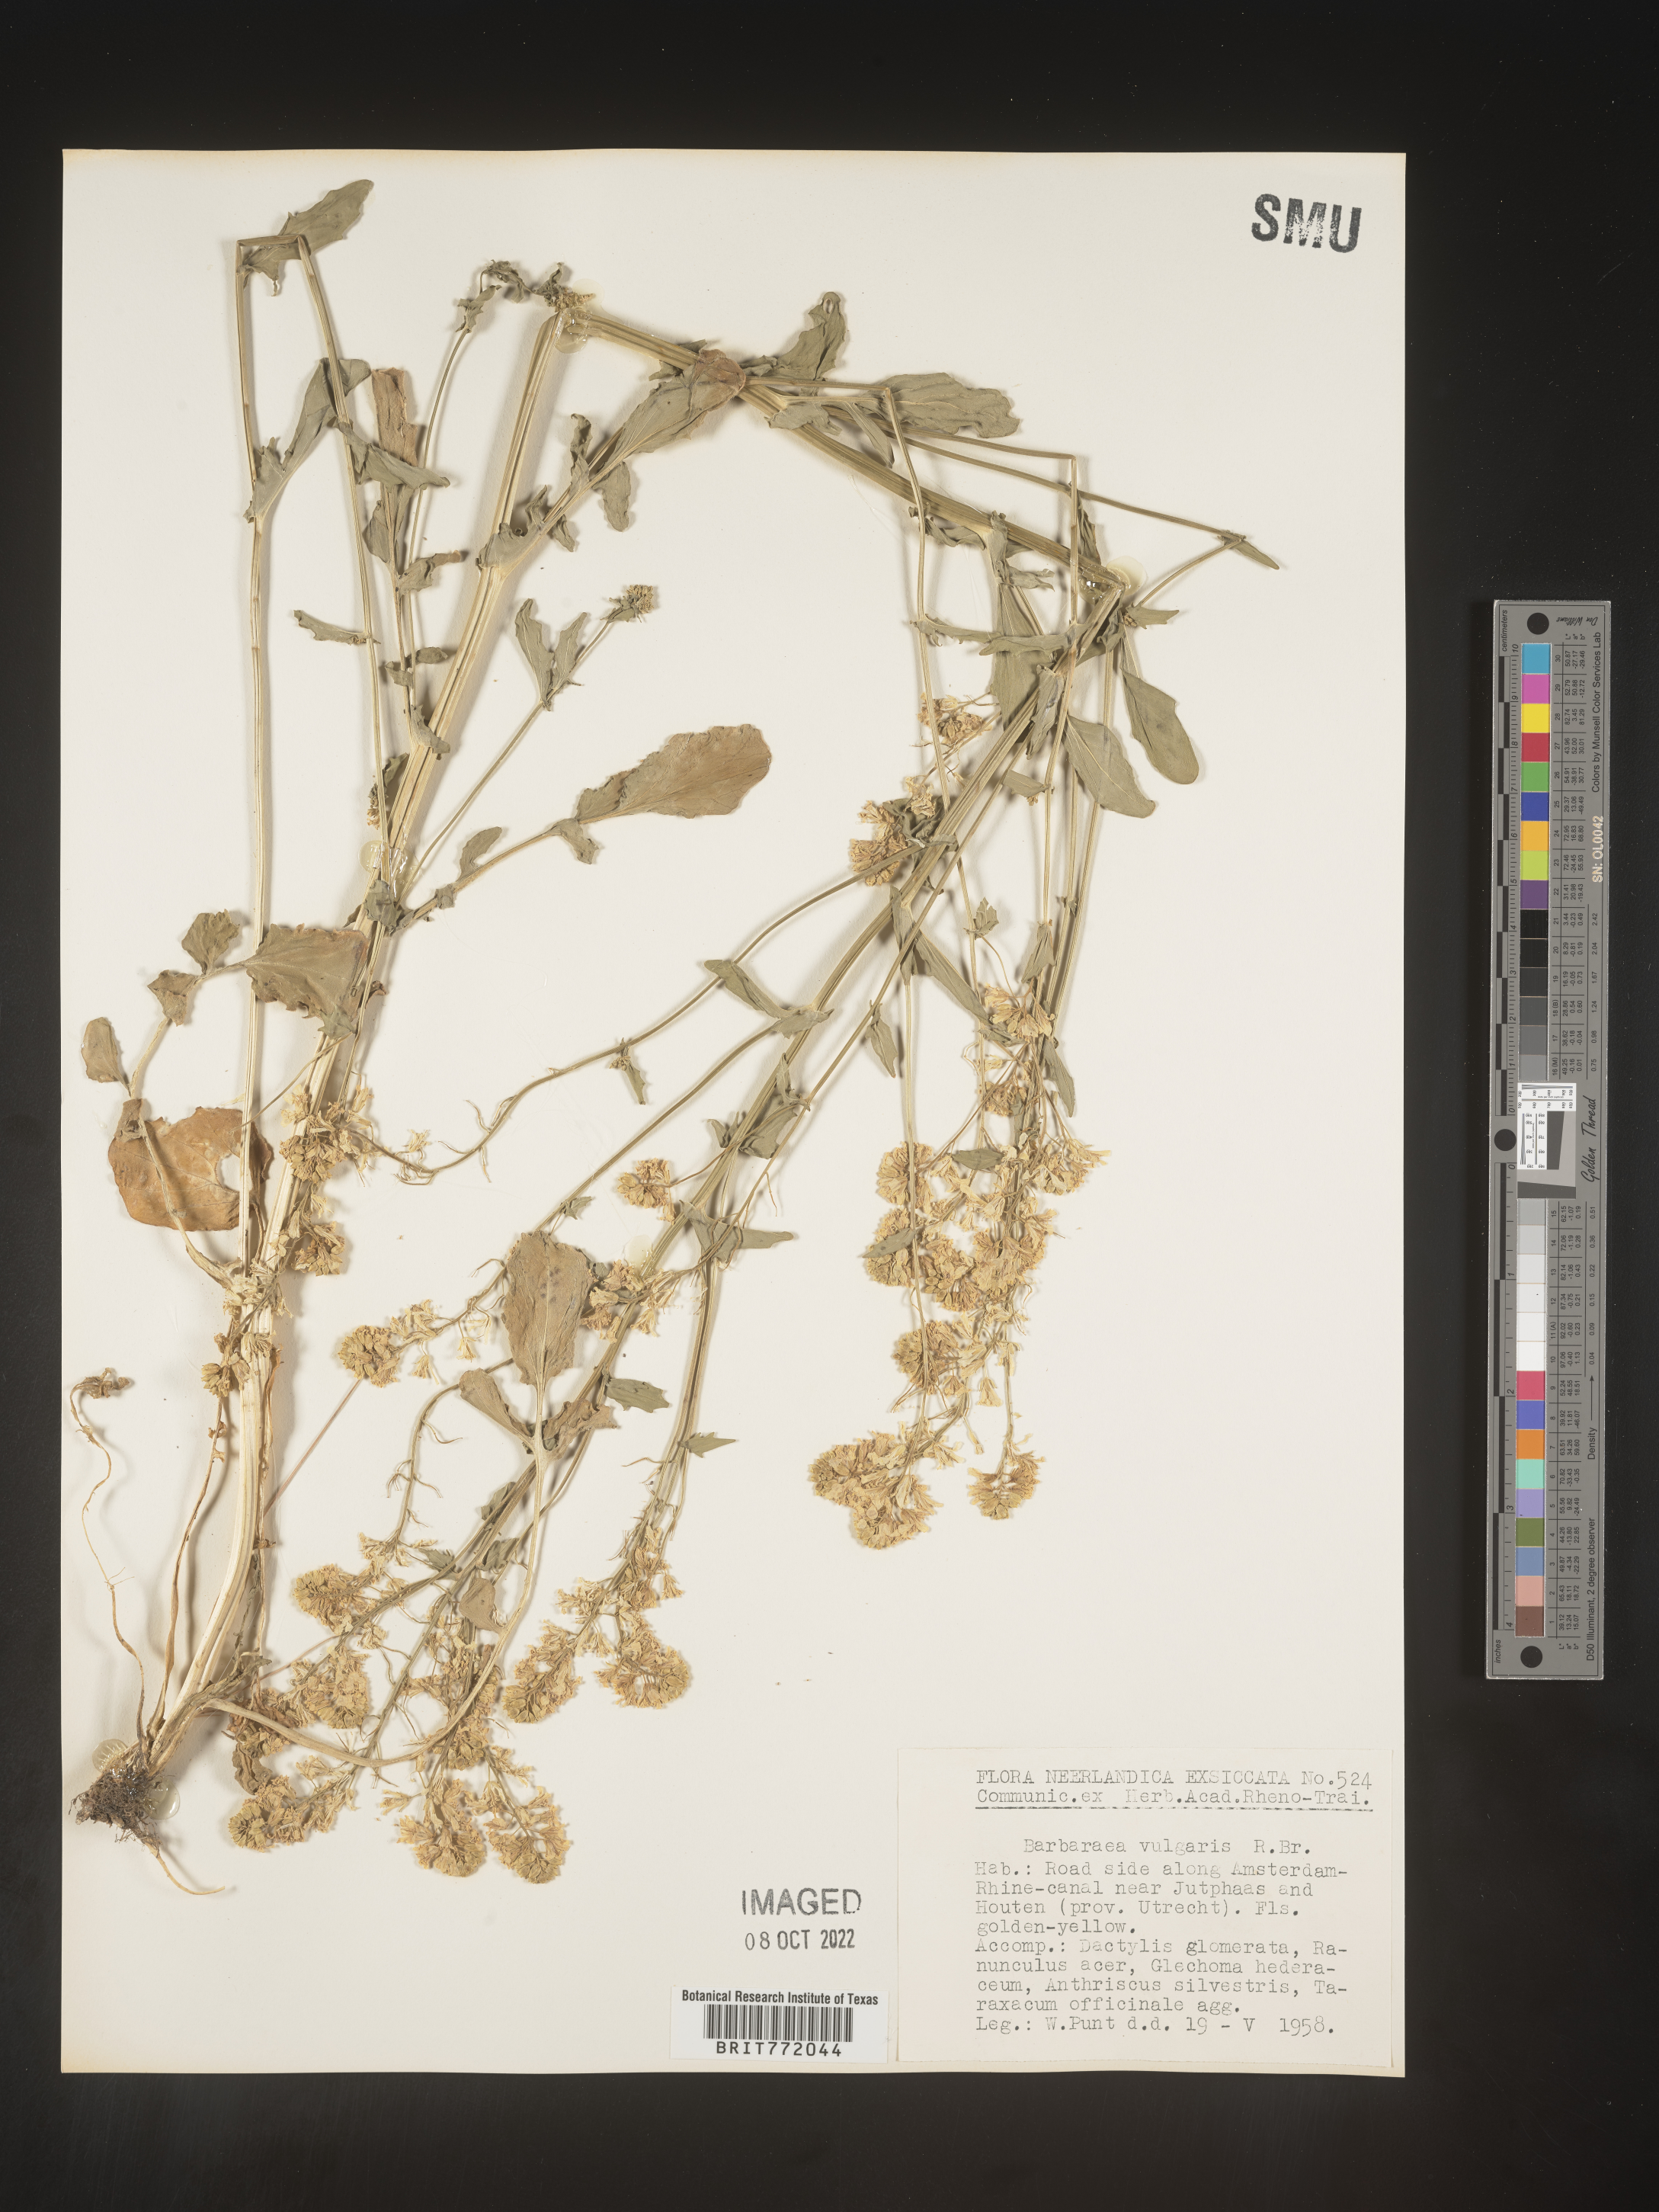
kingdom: Plantae
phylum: Tracheophyta
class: Magnoliopsida
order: Brassicales
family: Brassicaceae
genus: Barbarea
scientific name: Barbarea
